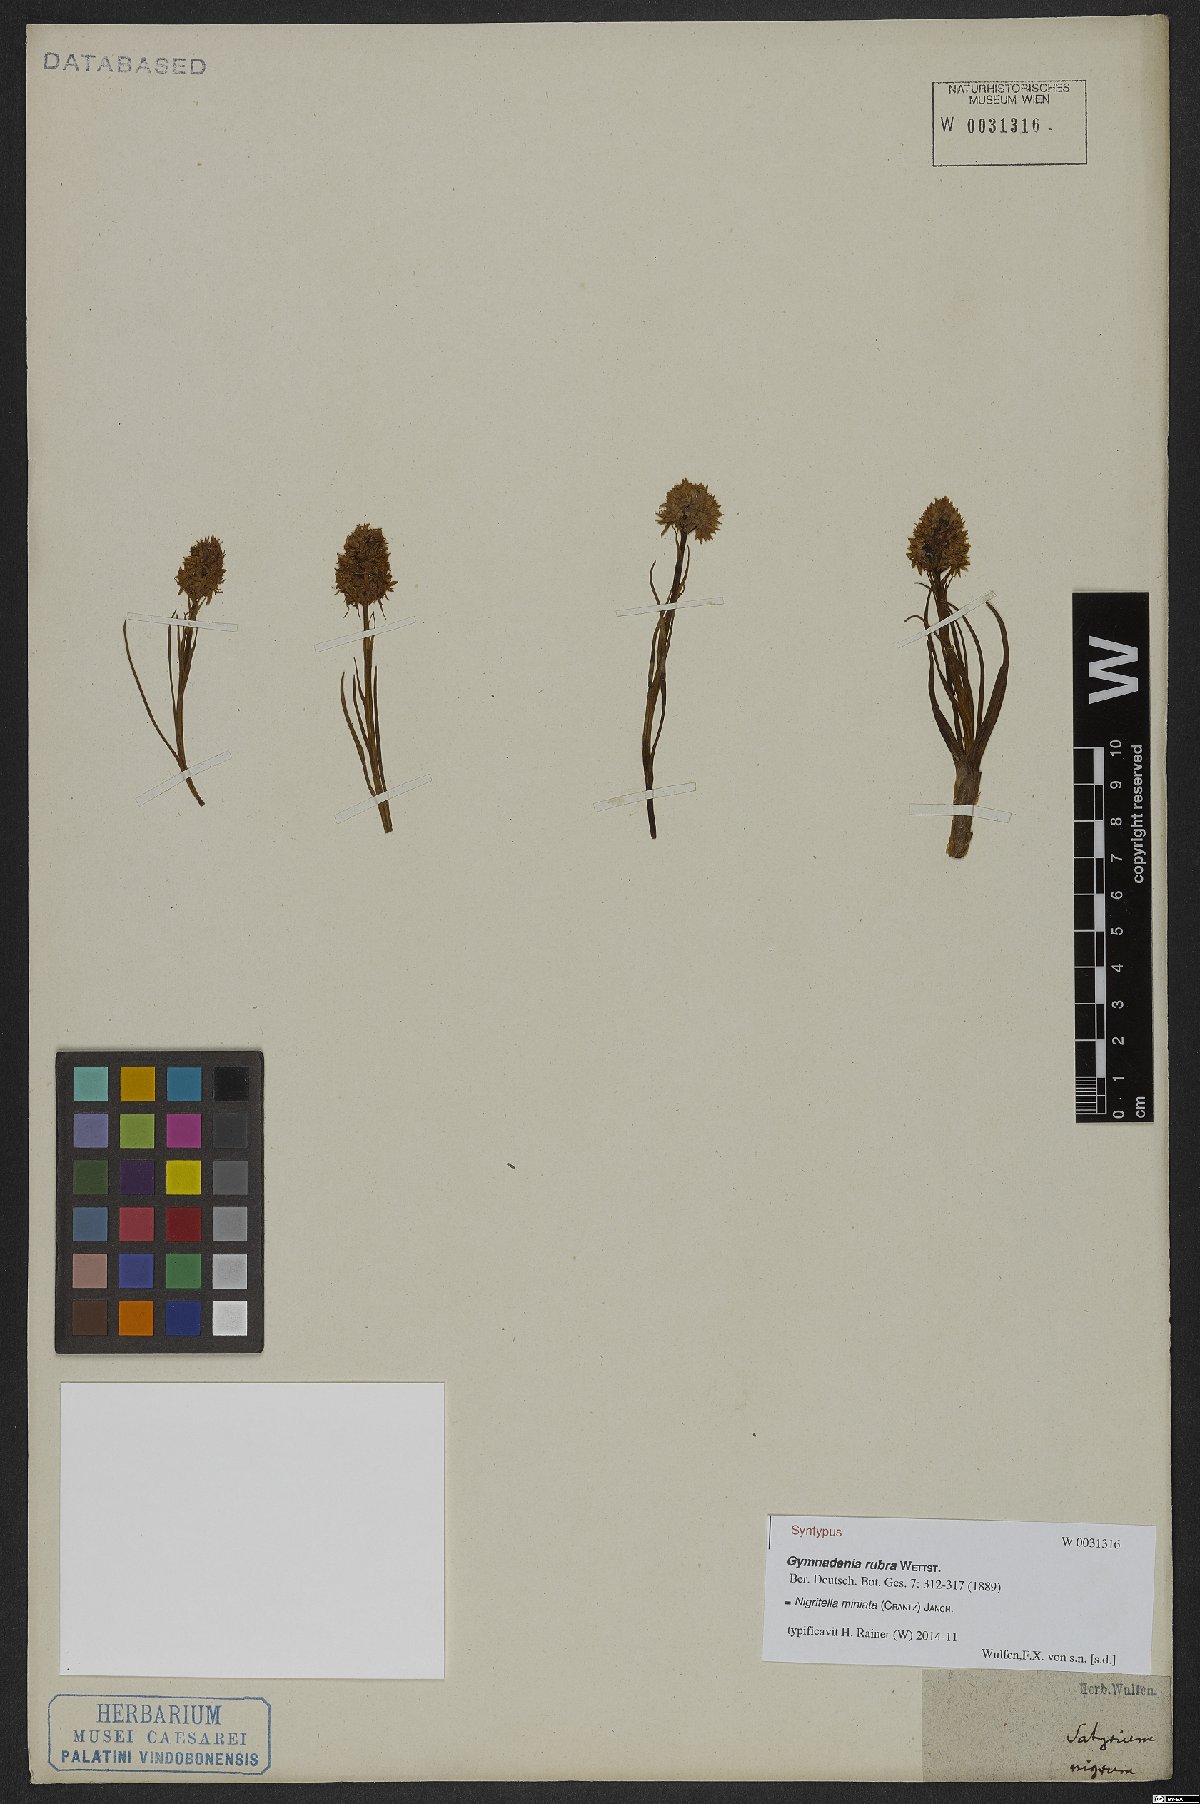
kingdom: Plantae
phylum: Tracheophyta
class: Liliopsida
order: Asparagales
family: Orchidaceae
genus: Gymnadenia
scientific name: Gymnadenia miniata
